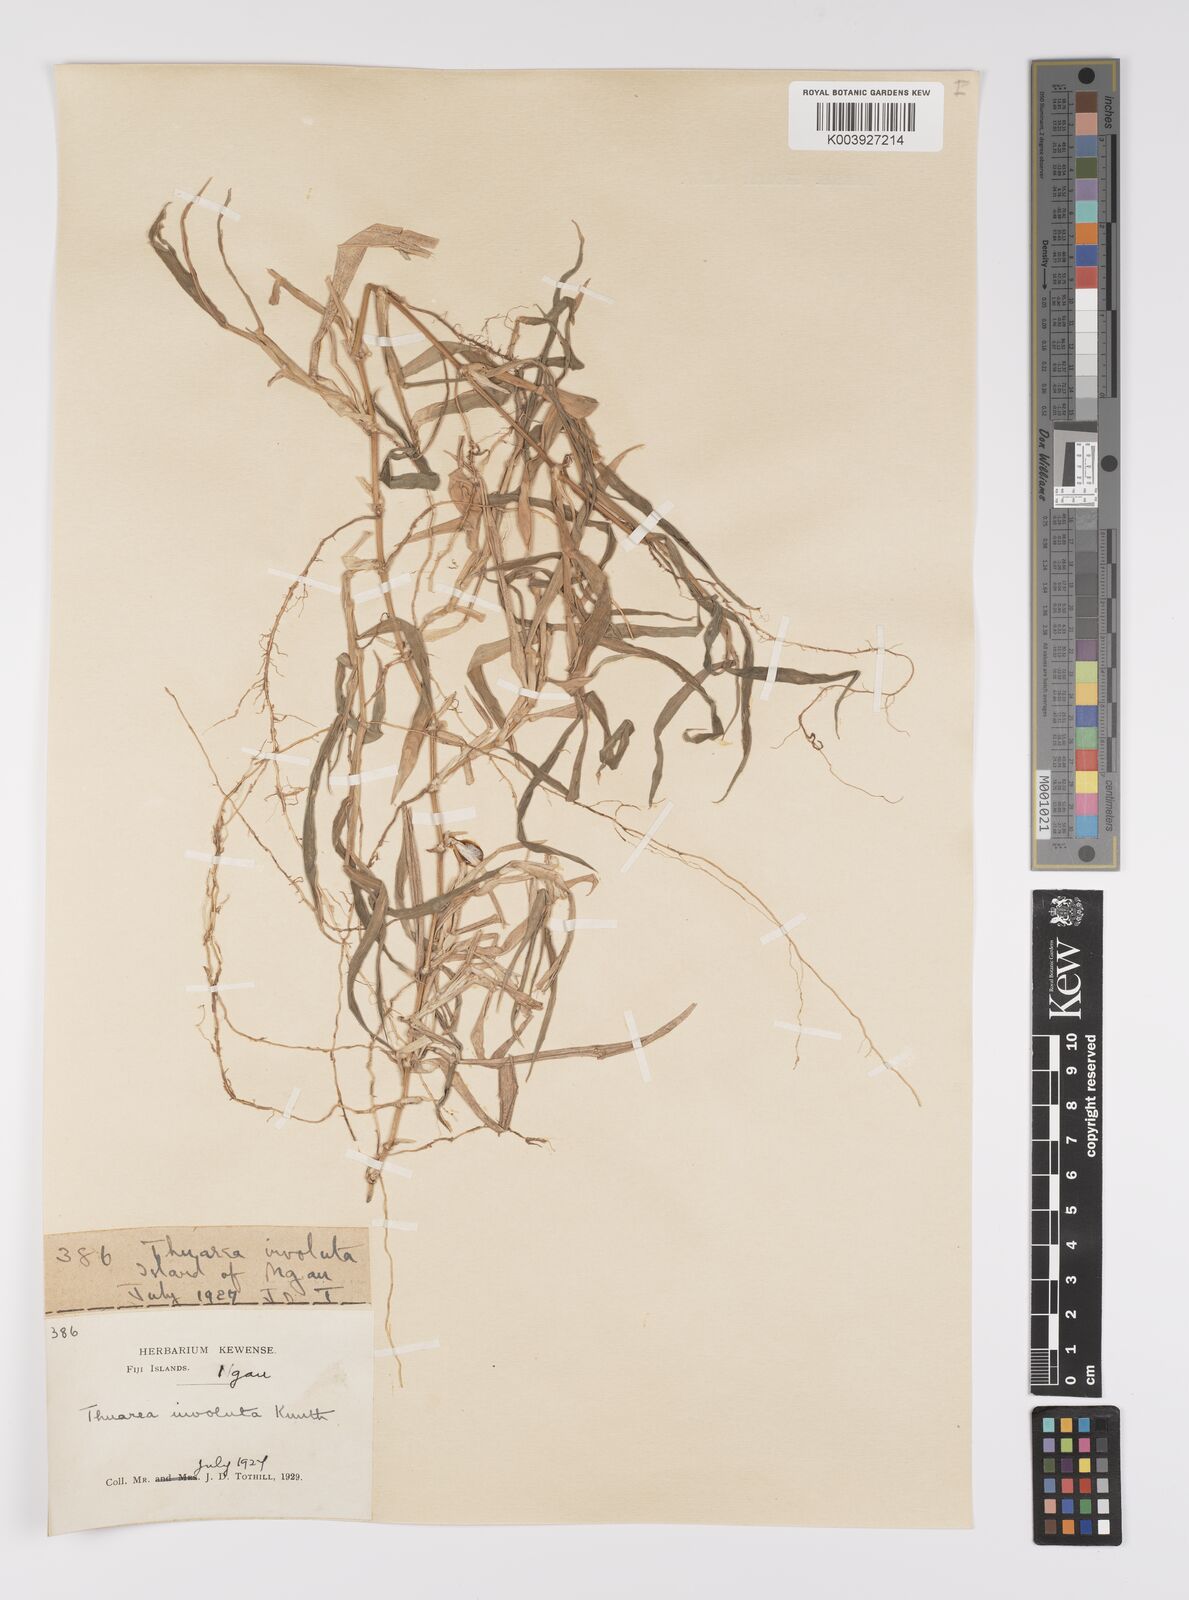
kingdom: Plantae
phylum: Tracheophyta
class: Liliopsida
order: Poales
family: Poaceae
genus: Thuarea
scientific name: Thuarea involuta
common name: Tropical beach grass
